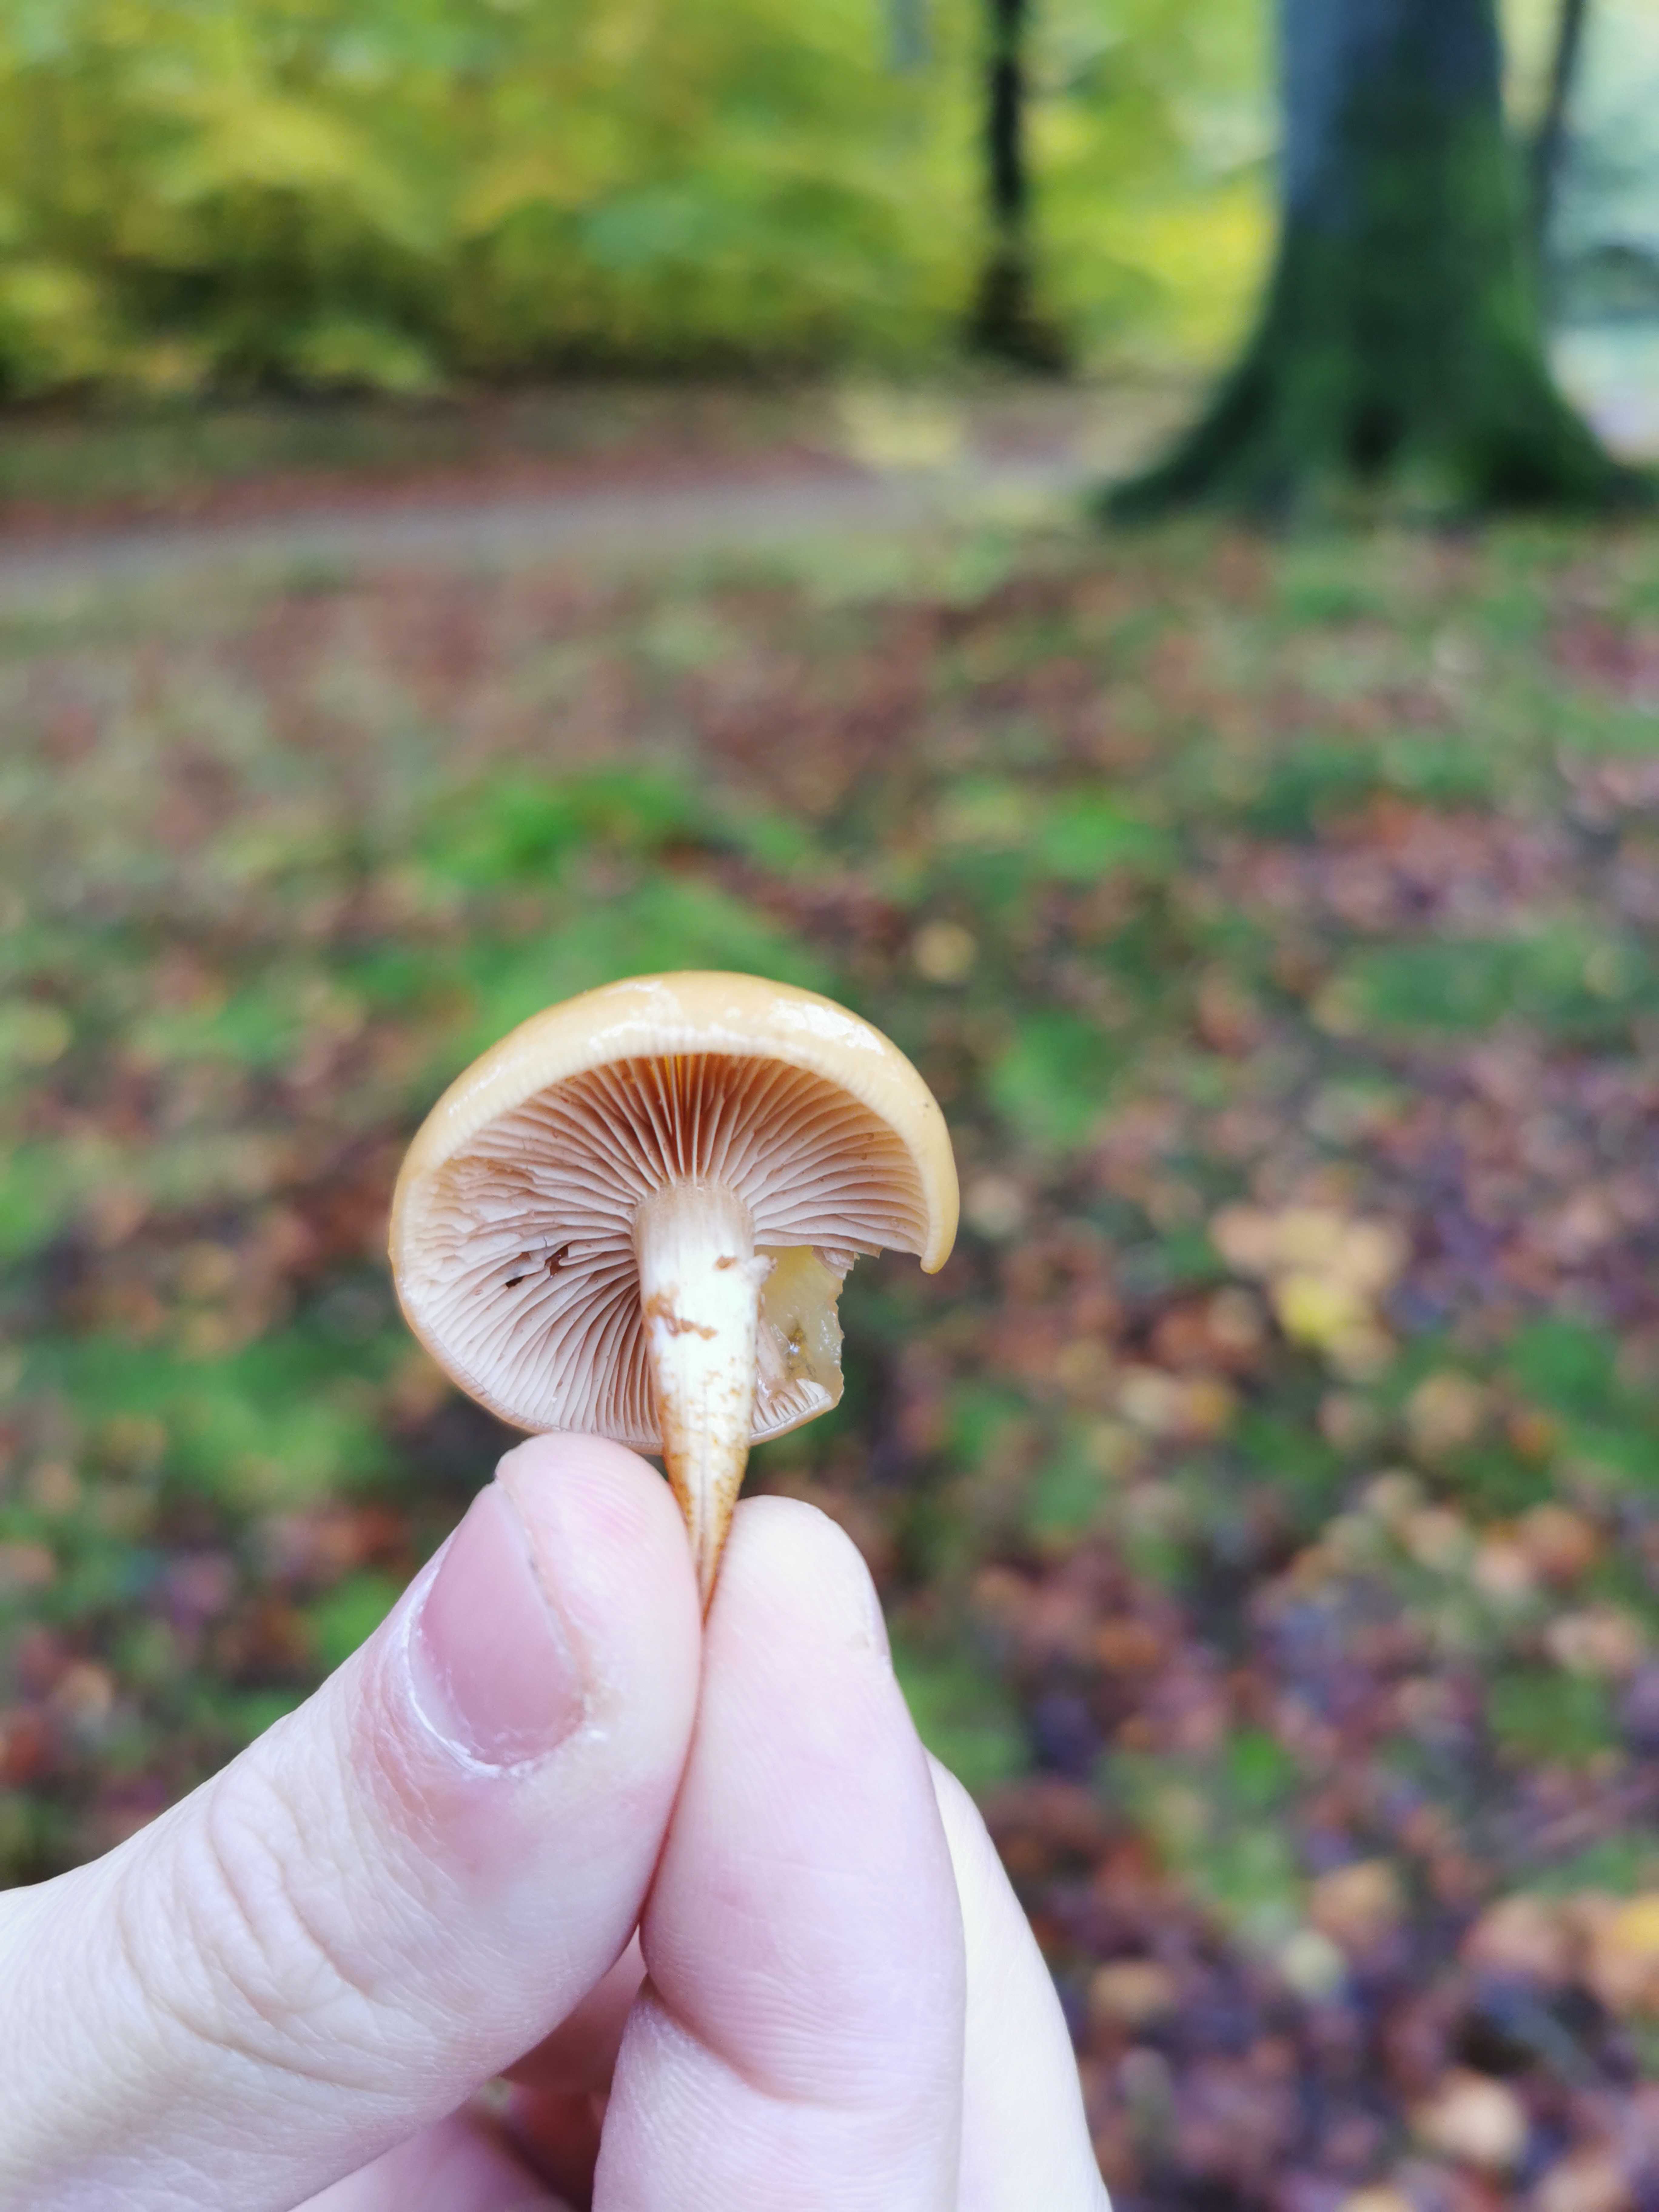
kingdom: Fungi
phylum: Basidiomycota
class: Agaricomycetes
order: Agaricales
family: Strophariaceae
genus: Kuehneromyces
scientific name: Kuehneromyces mutabilis
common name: foranderlig skælhat
